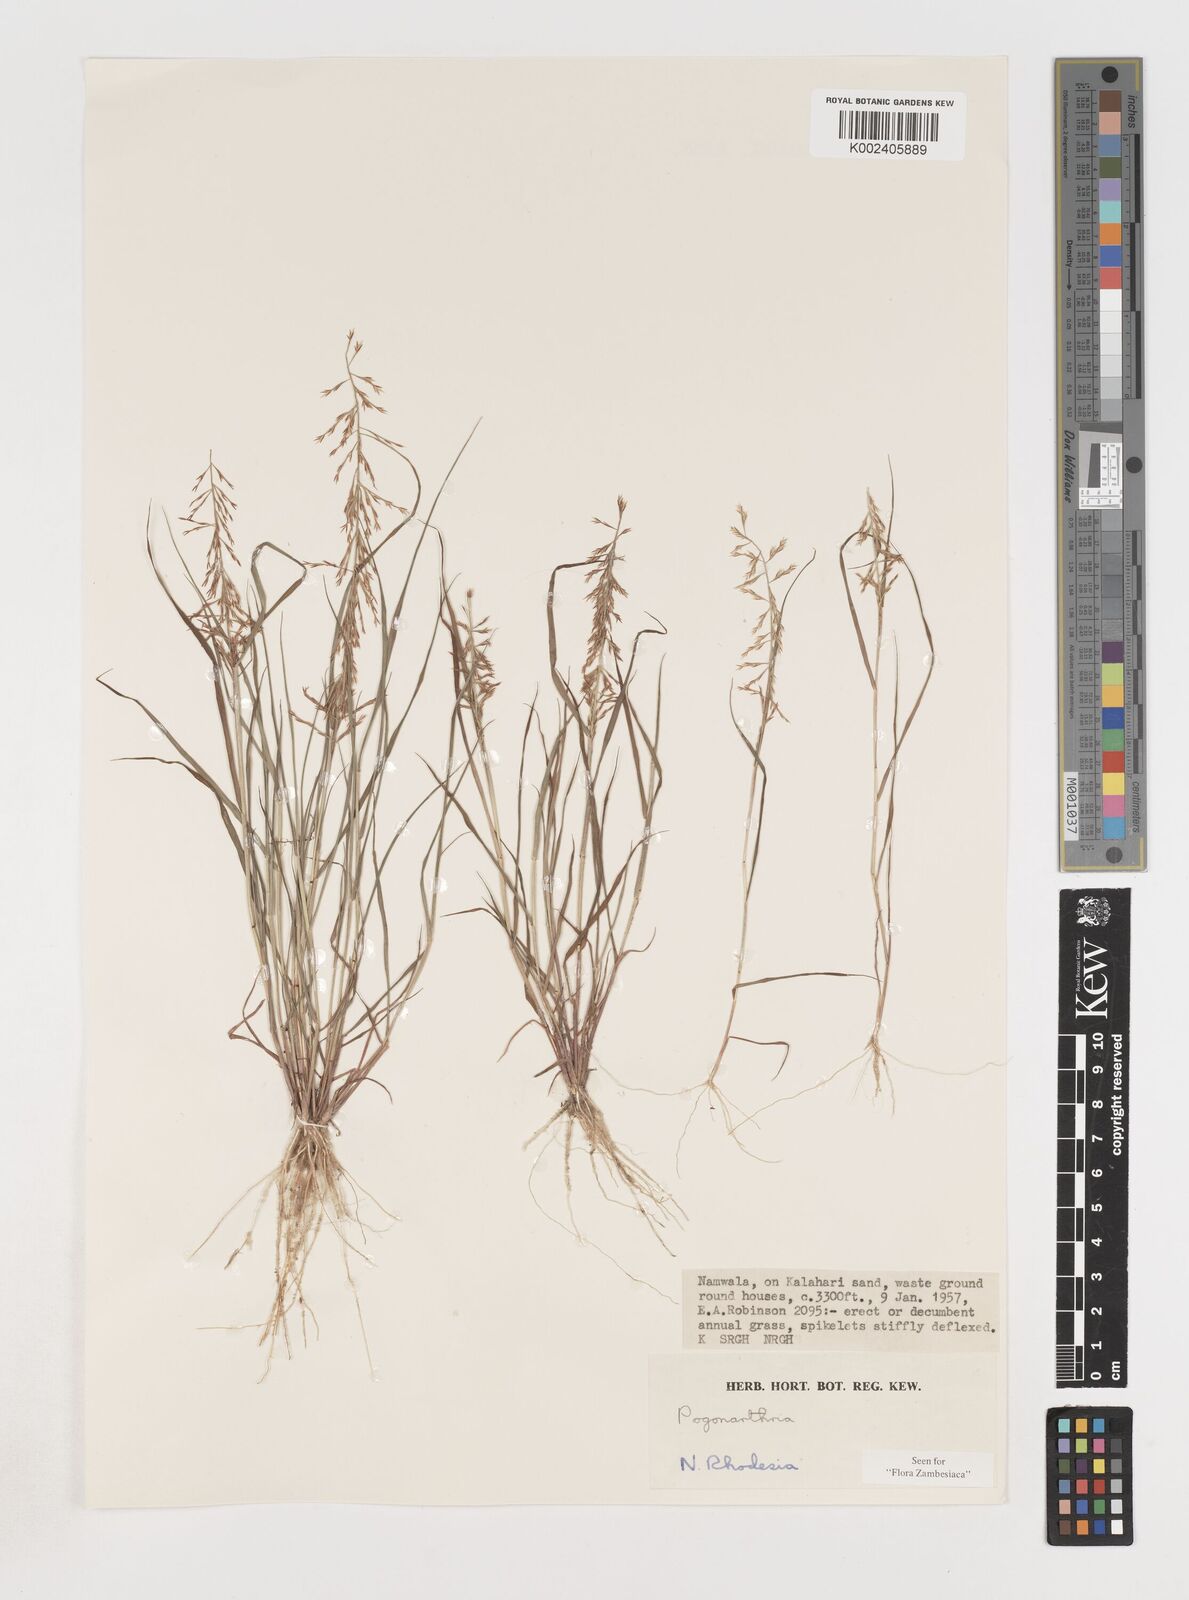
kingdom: Plantae
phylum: Tracheophyta
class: Liliopsida
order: Poales
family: Poaceae
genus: Pogonarthria
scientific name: Pogonarthria refracta
